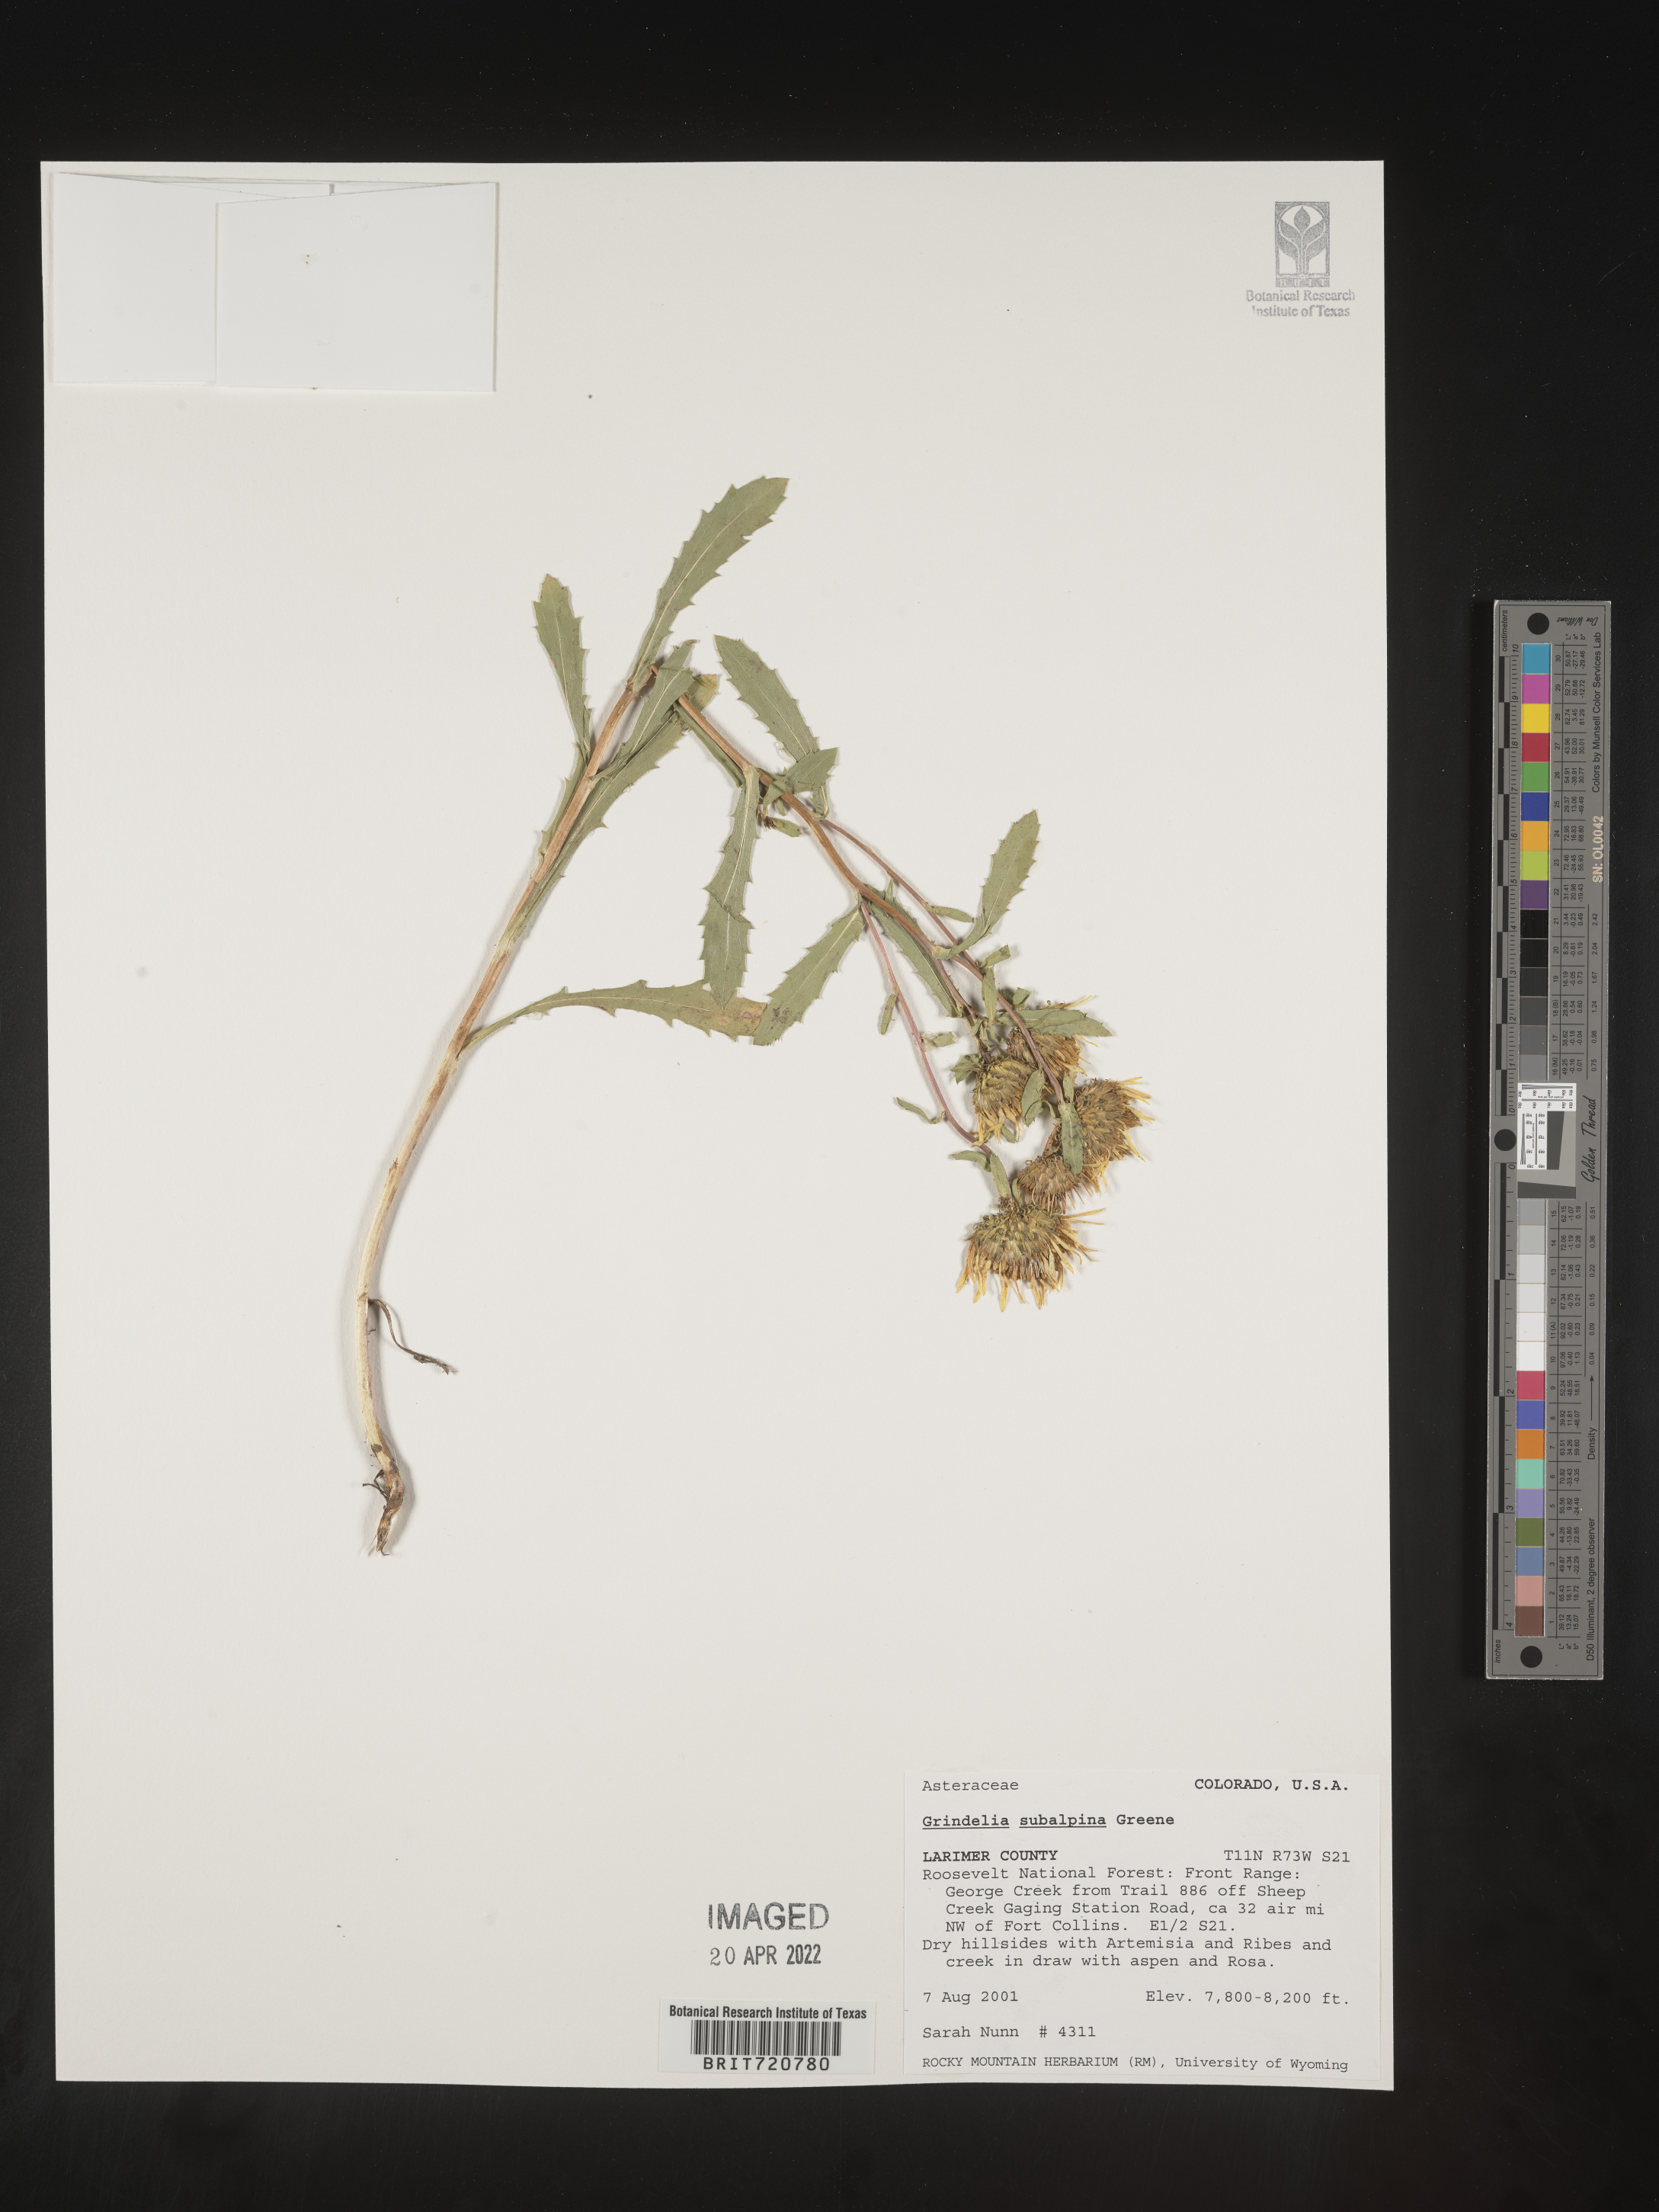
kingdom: Plantae
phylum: Tracheophyta
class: Magnoliopsida
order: Asterales
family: Asteraceae
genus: Grindelia
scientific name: Grindelia
